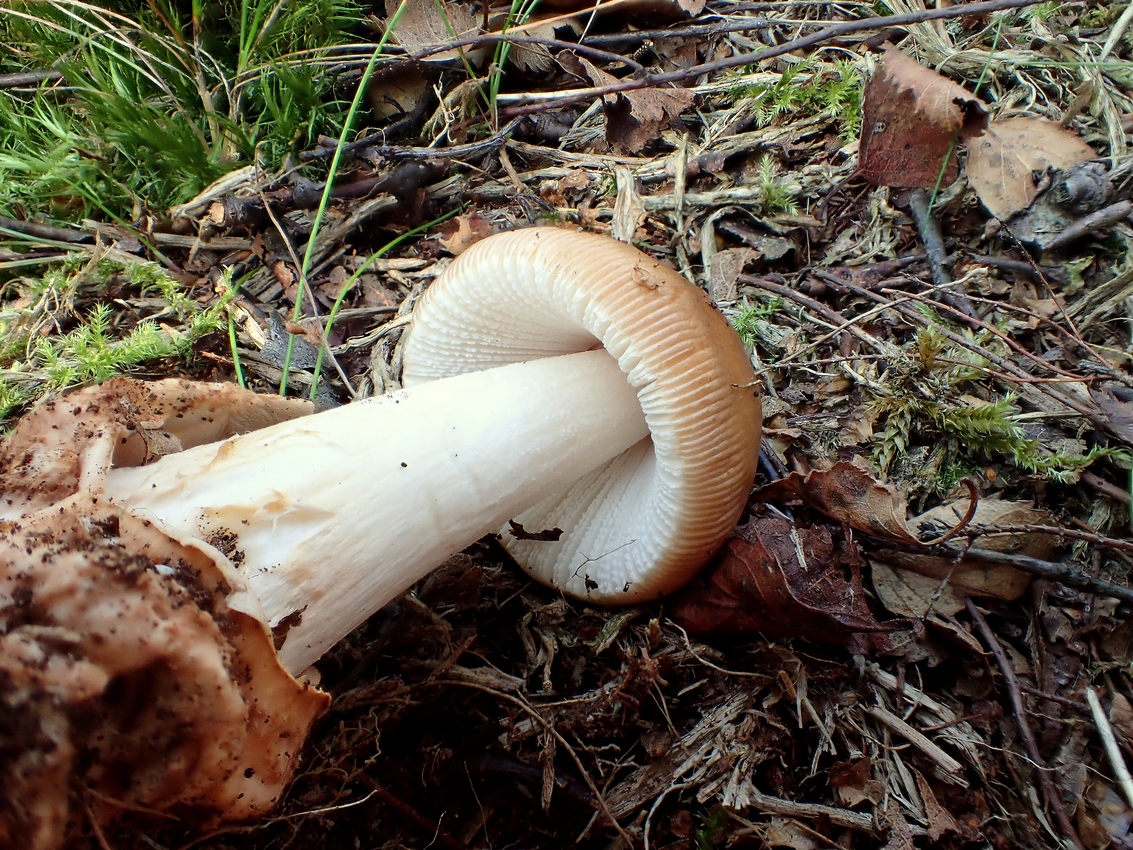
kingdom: Fungi
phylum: Basidiomycota
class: Agaricomycetes
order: Agaricales
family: Amanitaceae
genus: Amanita
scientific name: Amanita fulva
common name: brun kam-fluesvamp
